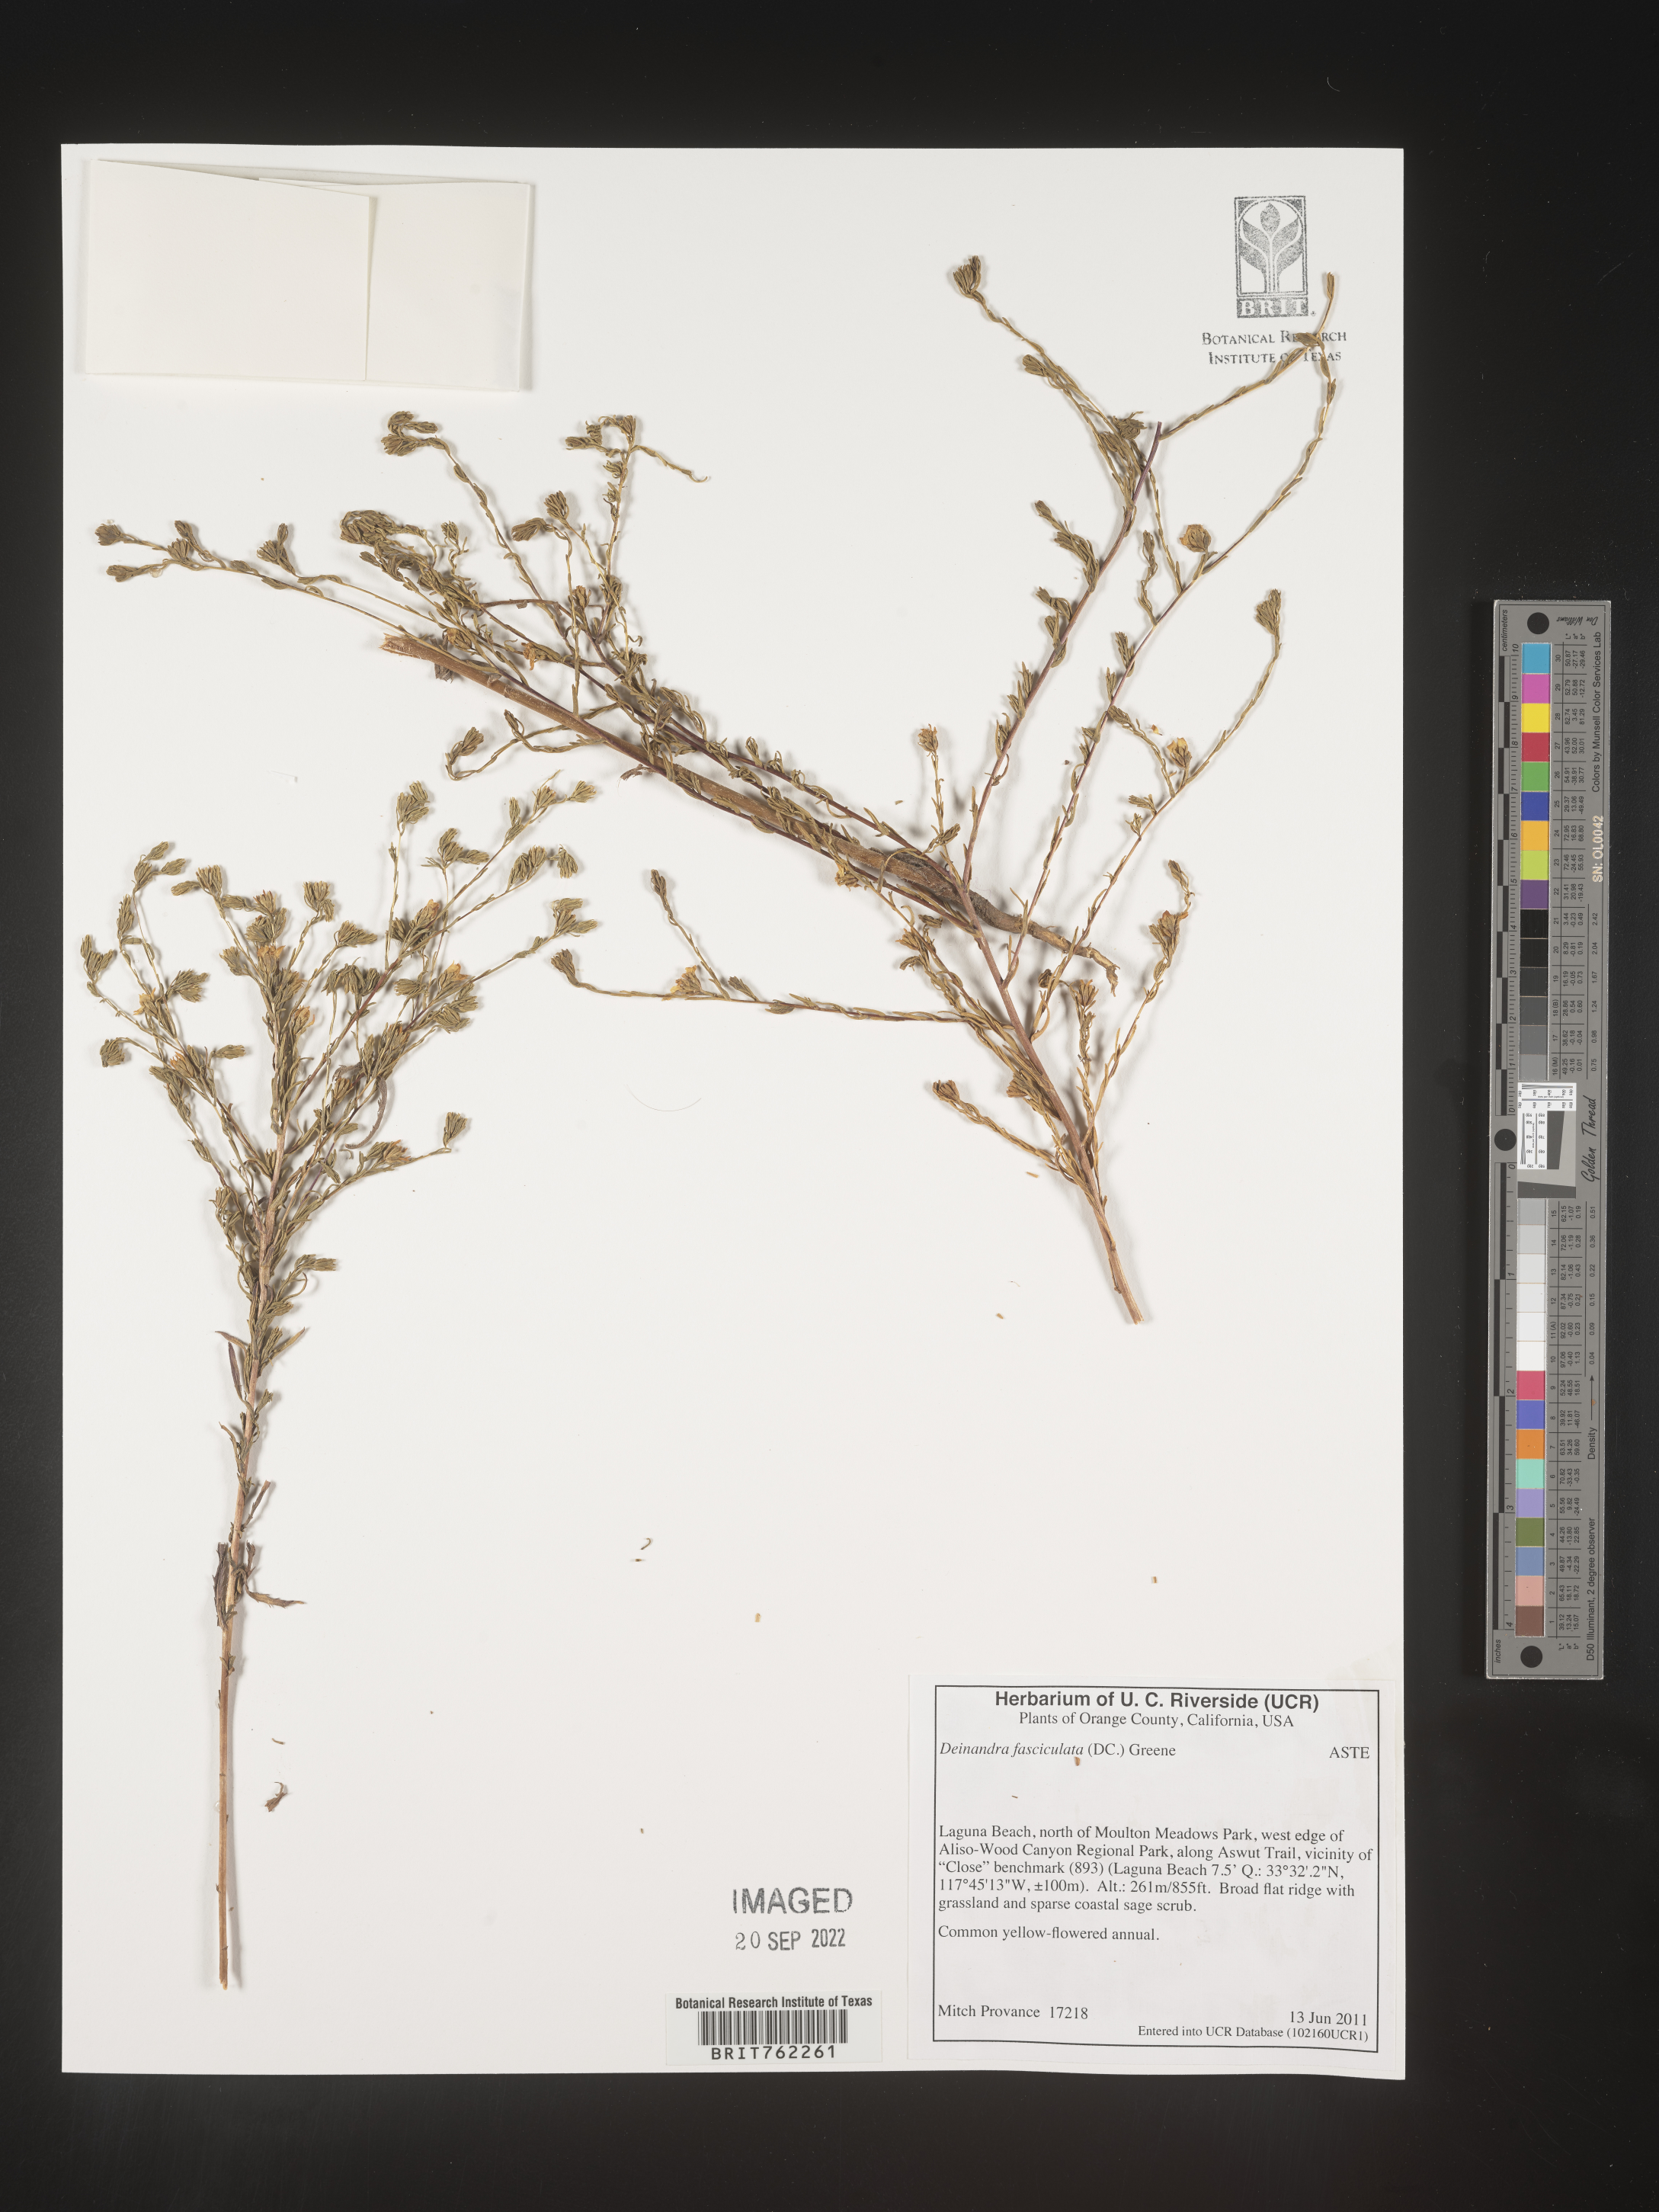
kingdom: Plantae
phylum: Tracheophyta
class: Magnoliopsida
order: Asterales
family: Asteraceae
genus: Deinandra
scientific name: Deinandra
